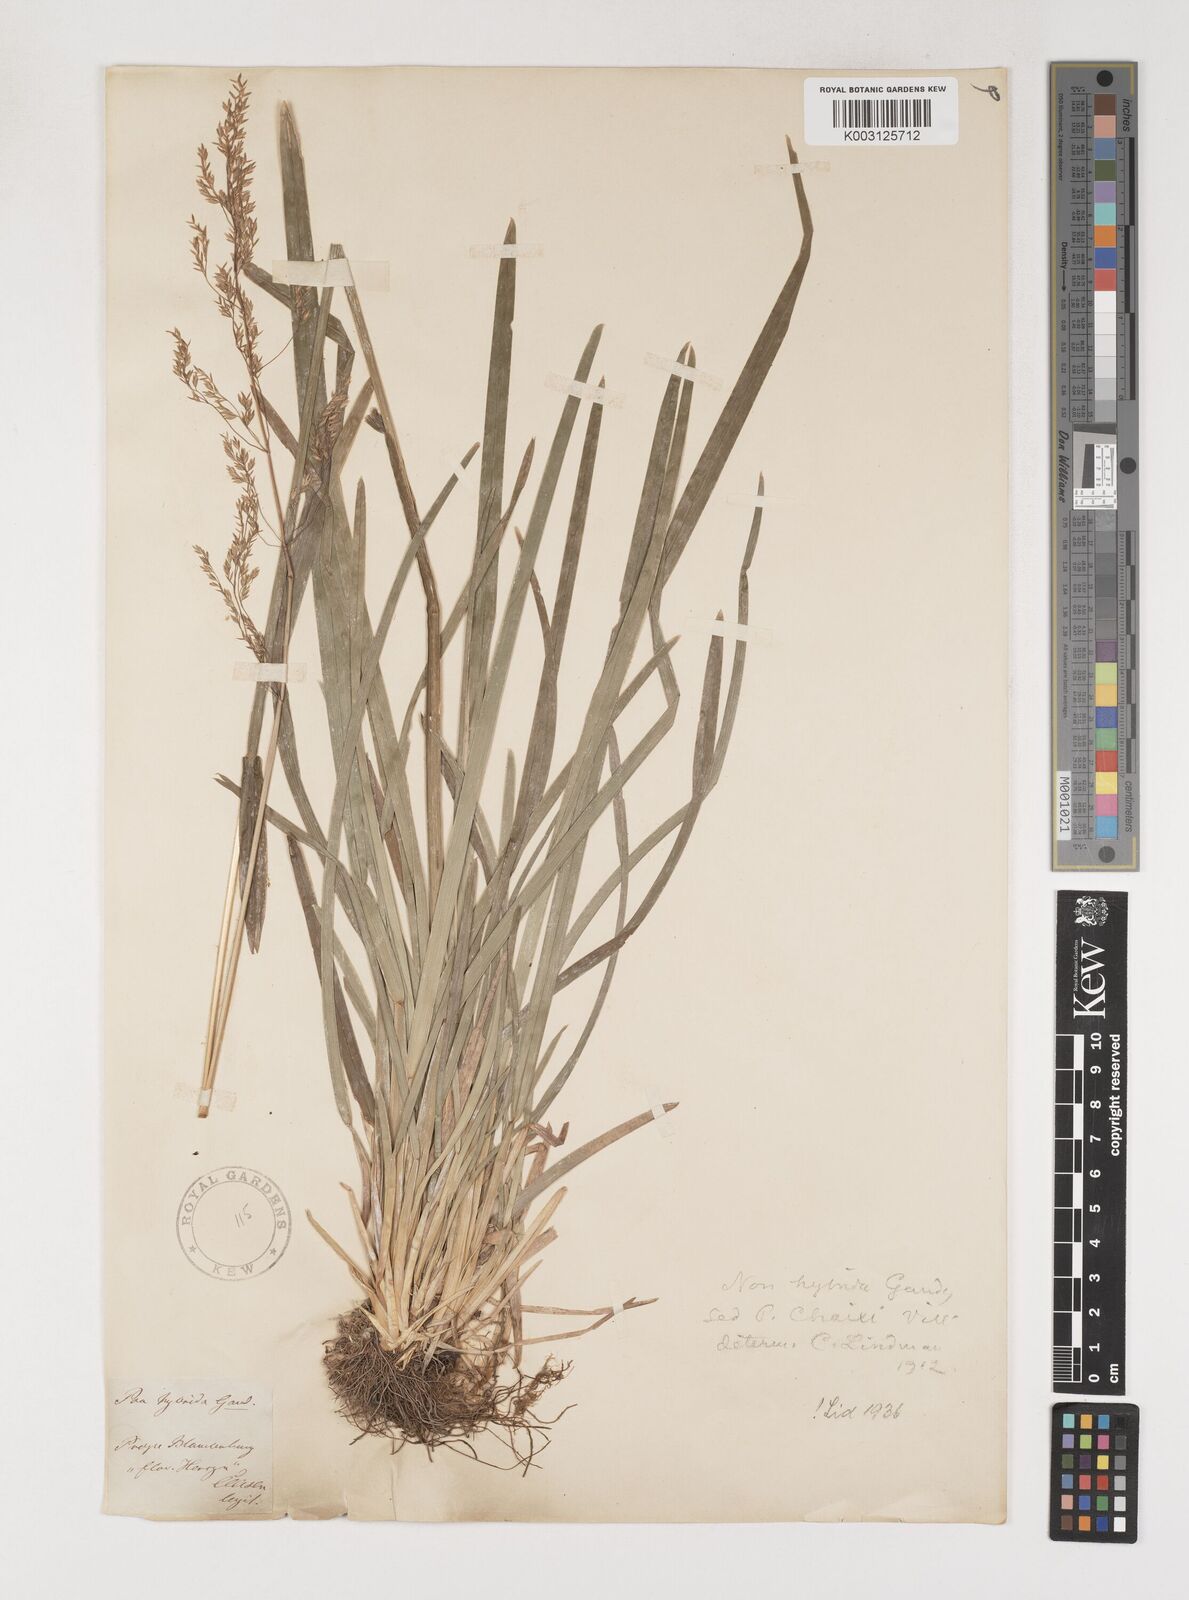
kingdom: Plantae
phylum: Tracheophyta
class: Liliopsida
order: Poales
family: Poaceae
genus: Poa
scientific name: Poa chaixii
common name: Broad-leaved meadow-grass
